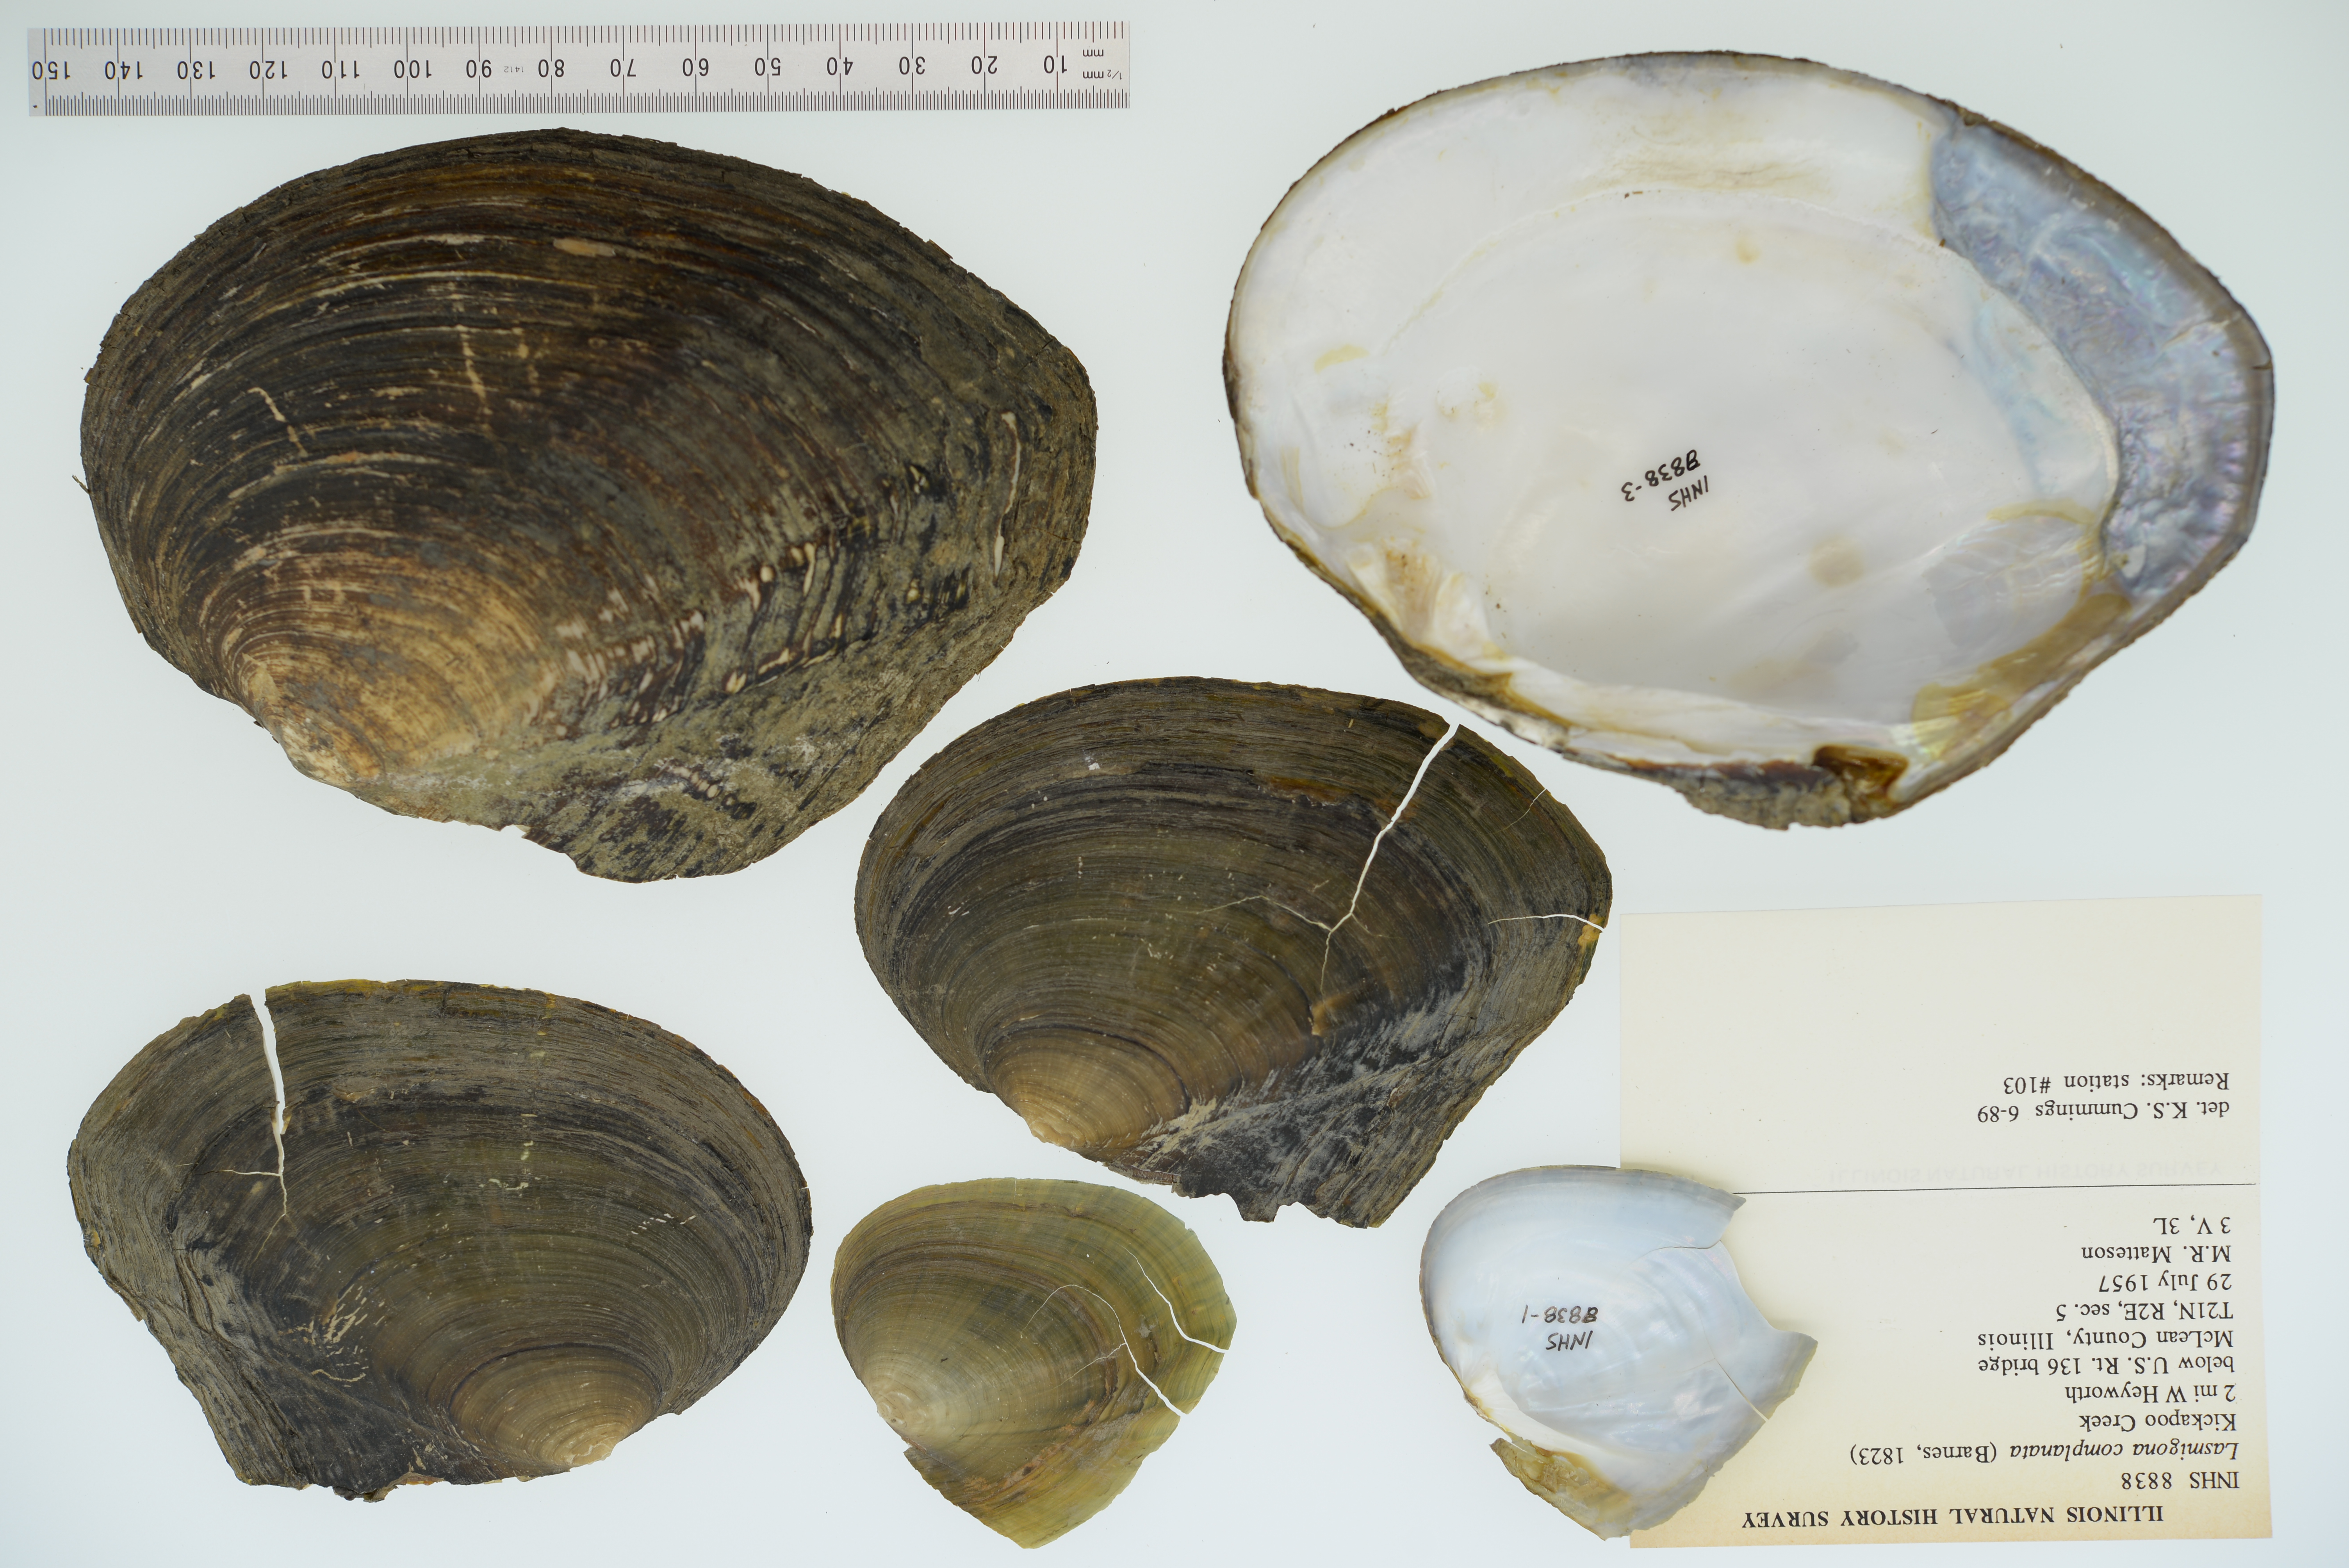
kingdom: Animalia
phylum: Mollusca
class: Bivalvia
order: Unionida
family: Unionidae
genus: Lasmigona
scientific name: Lasmigona complanata
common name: White heelsplitter
